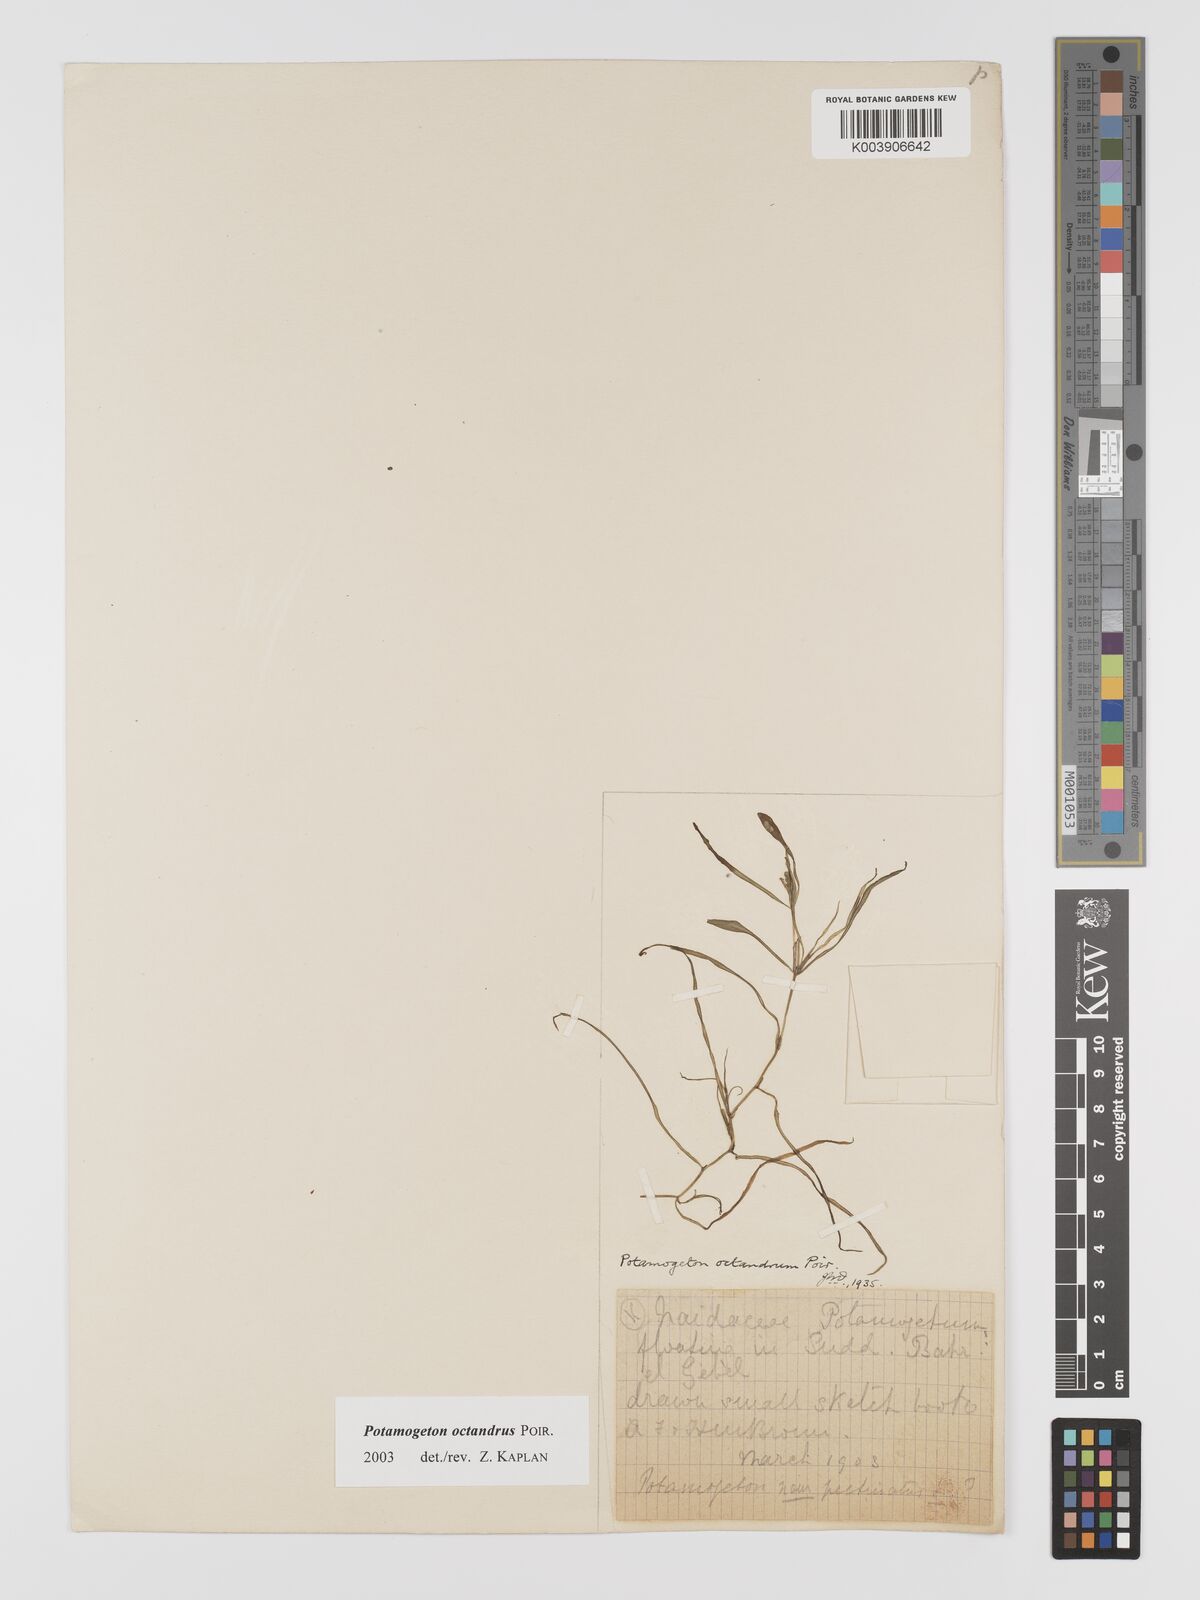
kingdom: Plantae
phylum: Tracheophyta
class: Liliopsida
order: Alismatales
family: Potamogetonaceae
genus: Potamogeton
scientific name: Potamogeton octandrus
